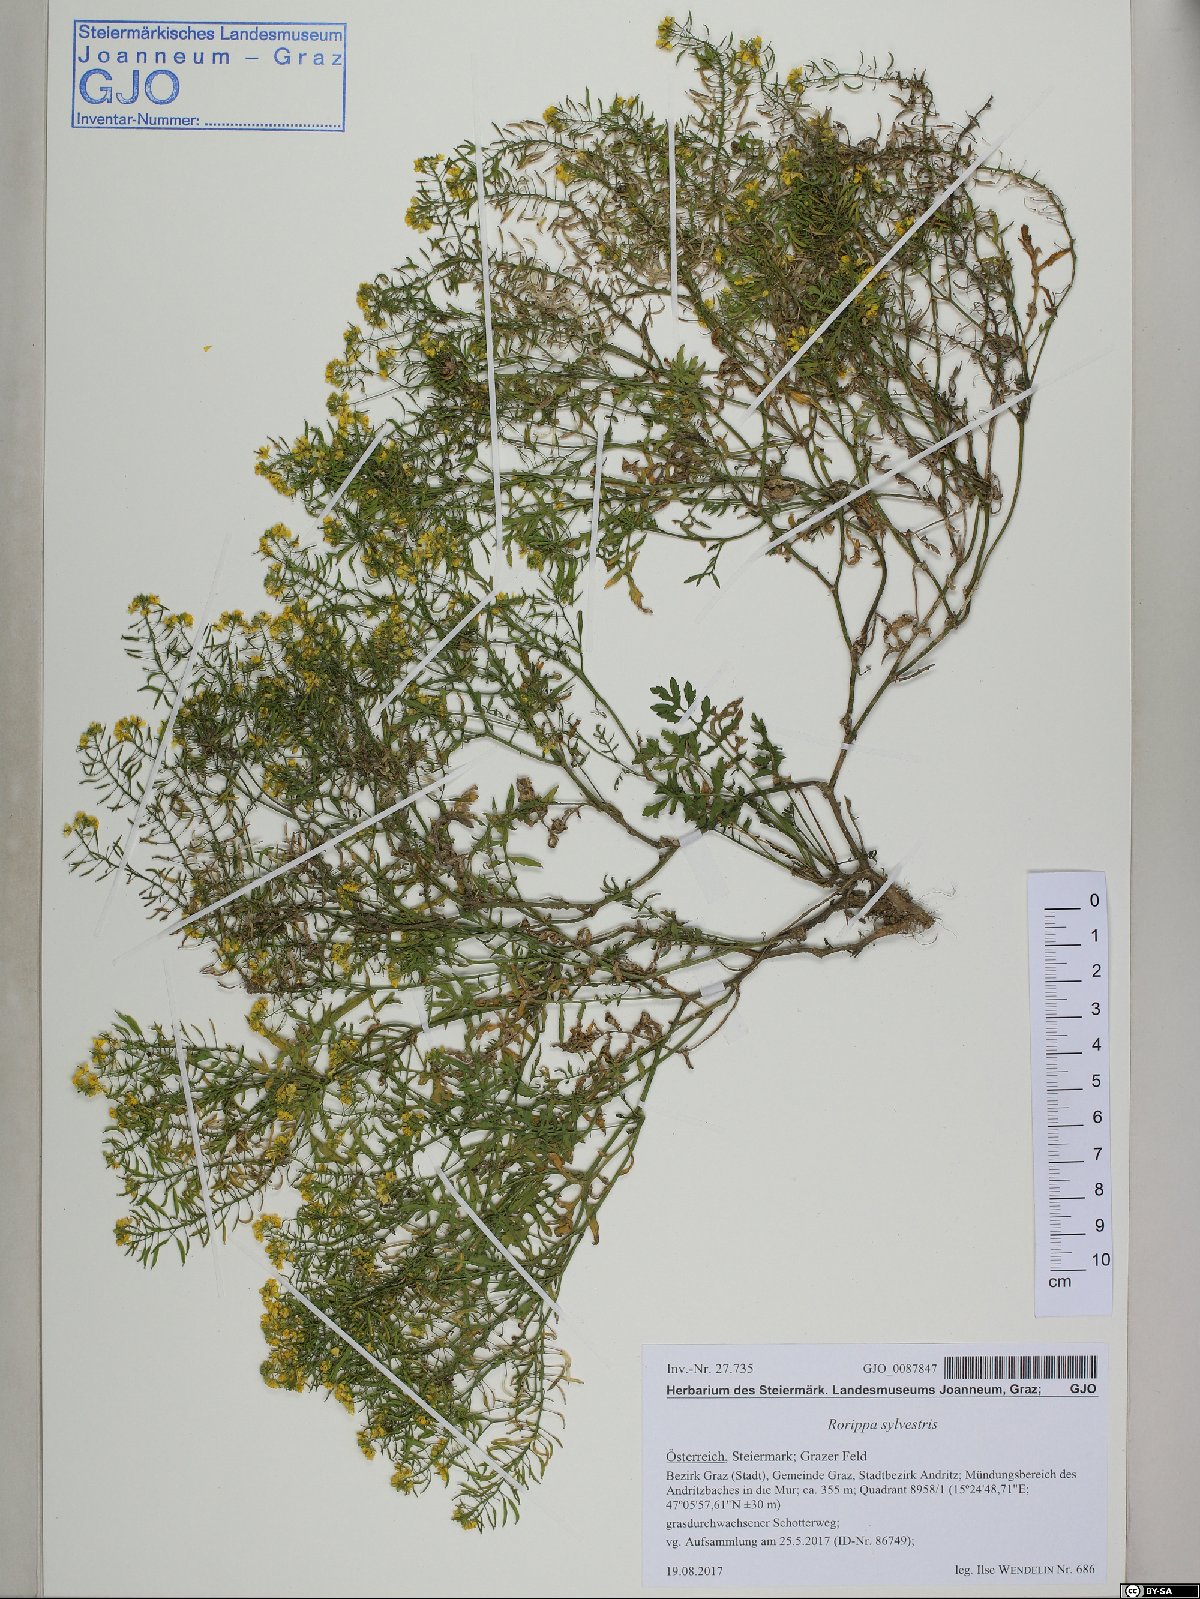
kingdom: Plantae
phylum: Tracheophyta
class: Magnoliopsida
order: Brassicales
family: Brassicaceae
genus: Rorippa
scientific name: Rorippa sylvestris
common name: Creeping yellowcress
